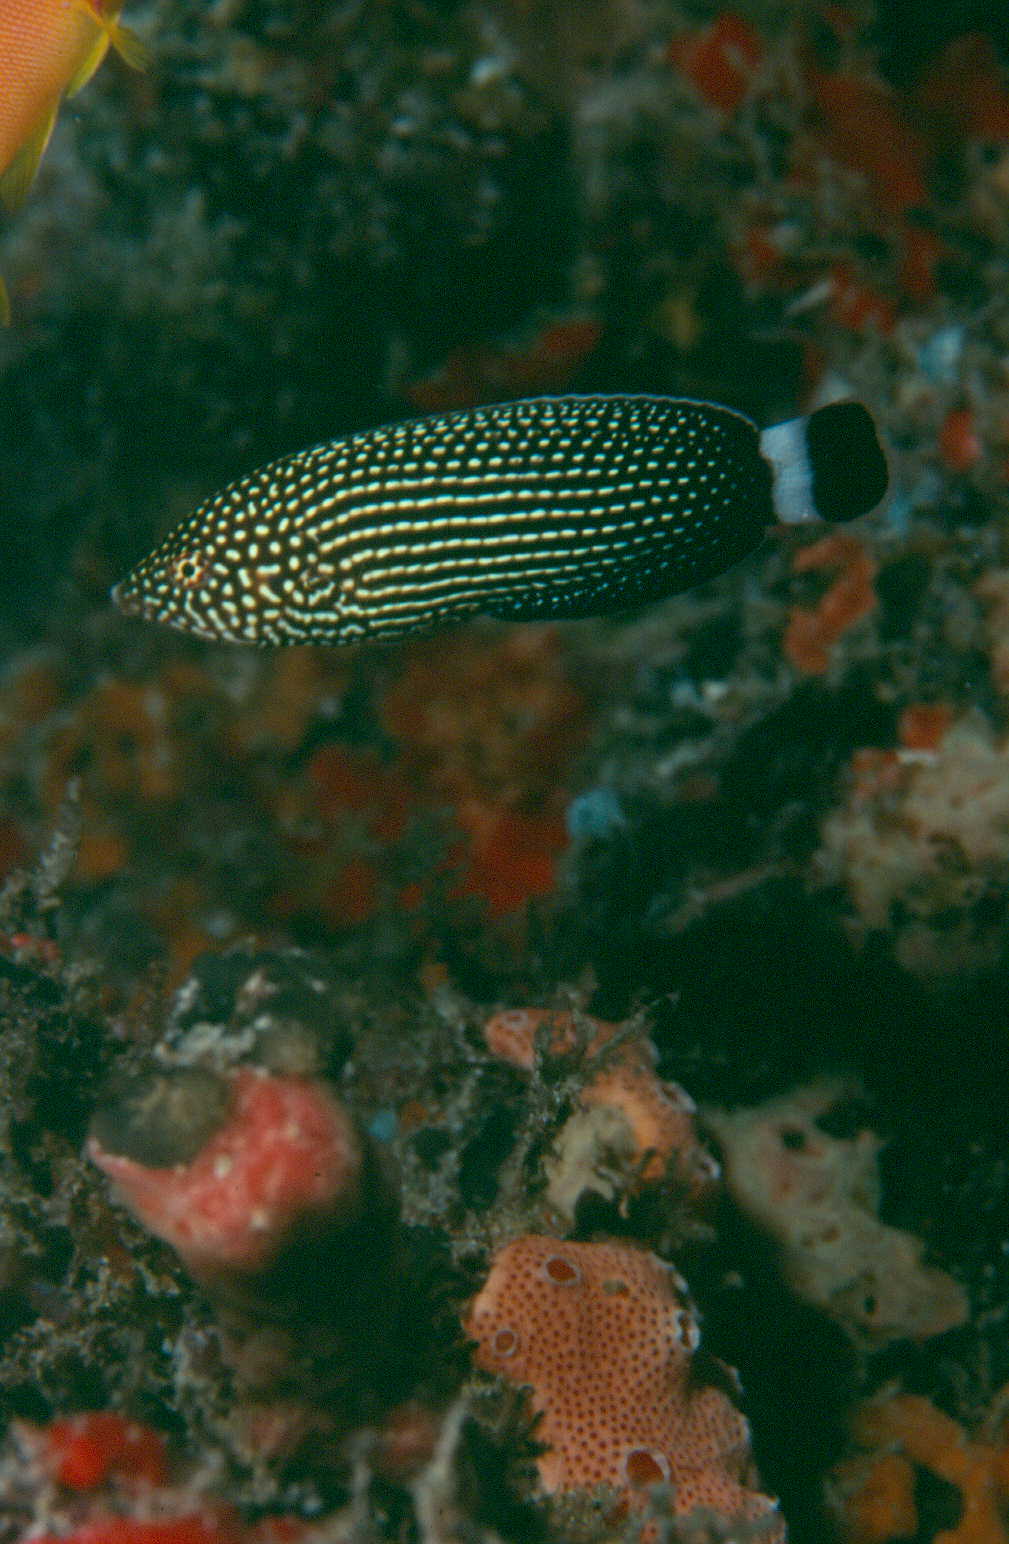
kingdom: Animalia
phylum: Chordata
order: Perciformes
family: Labridae
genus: Anampses
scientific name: Anampses lineatus
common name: Lined wrasse
